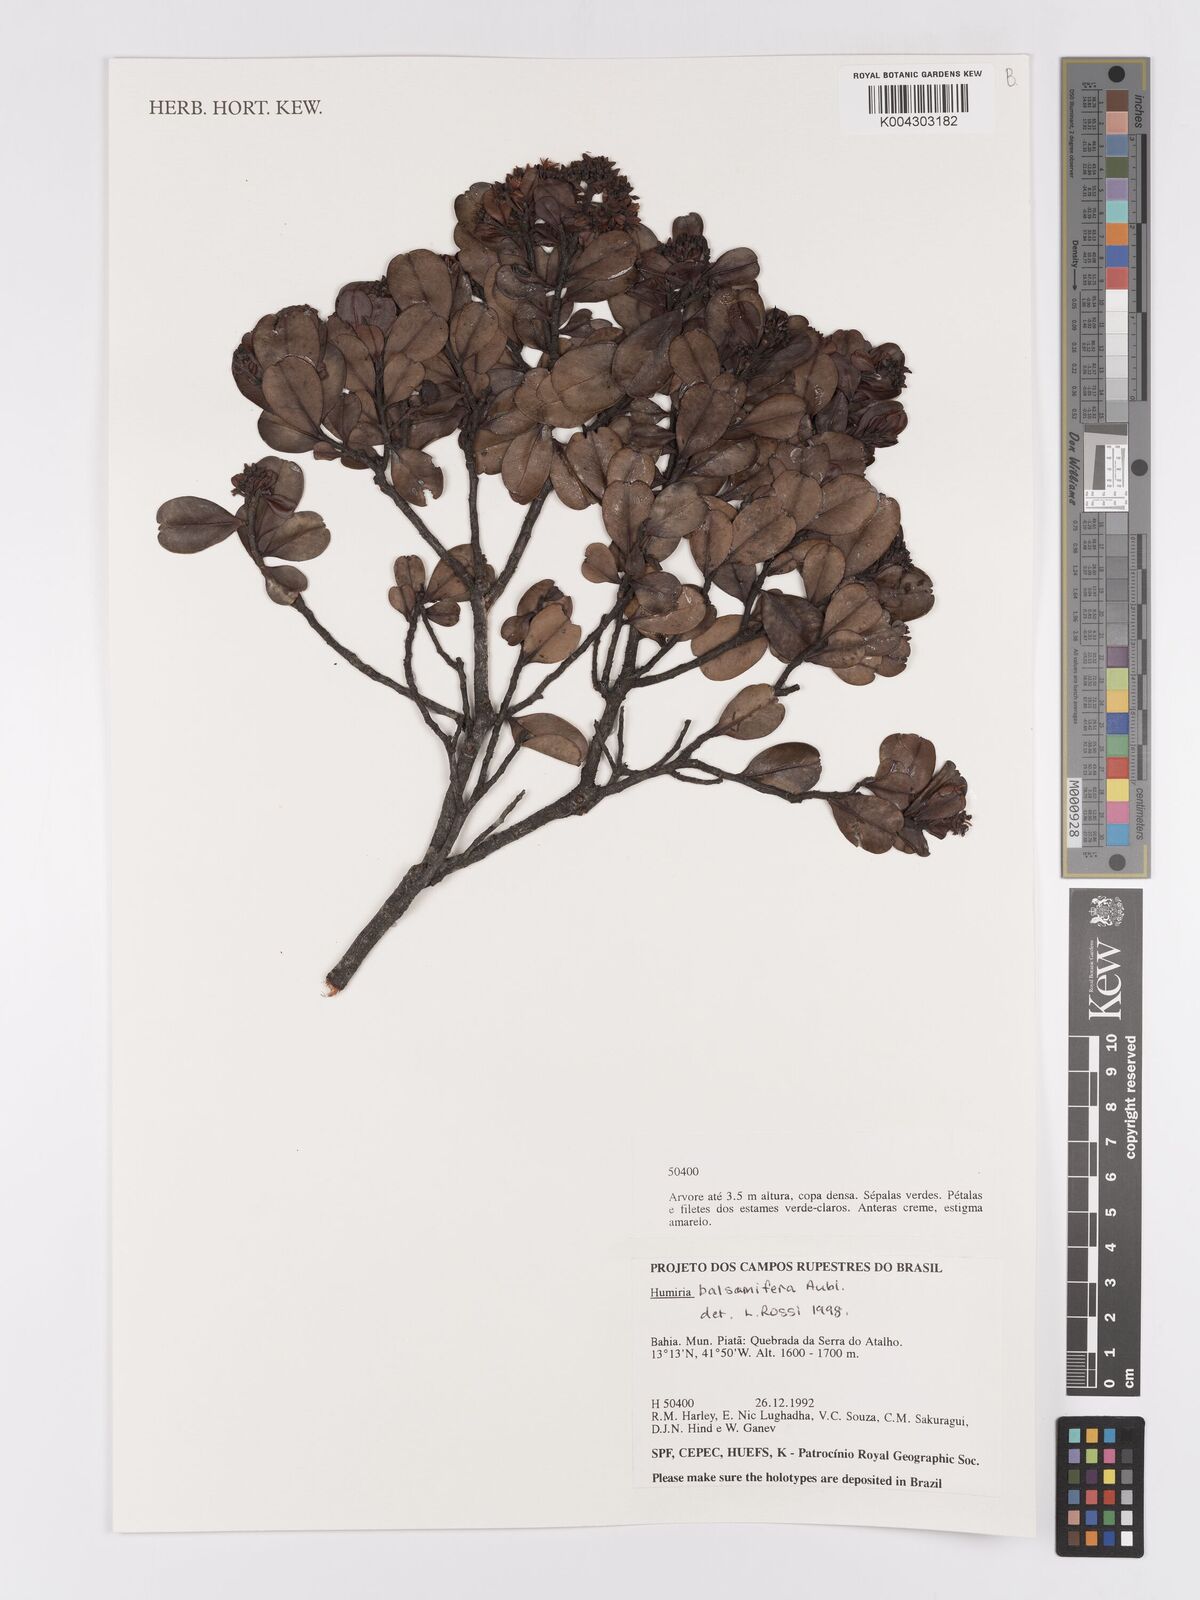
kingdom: Plantae
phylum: Tracheophyta
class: Magnoliopsida
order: Malpighiales
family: Humiriaceae
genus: Humiria
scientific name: Humiria parvifolia
